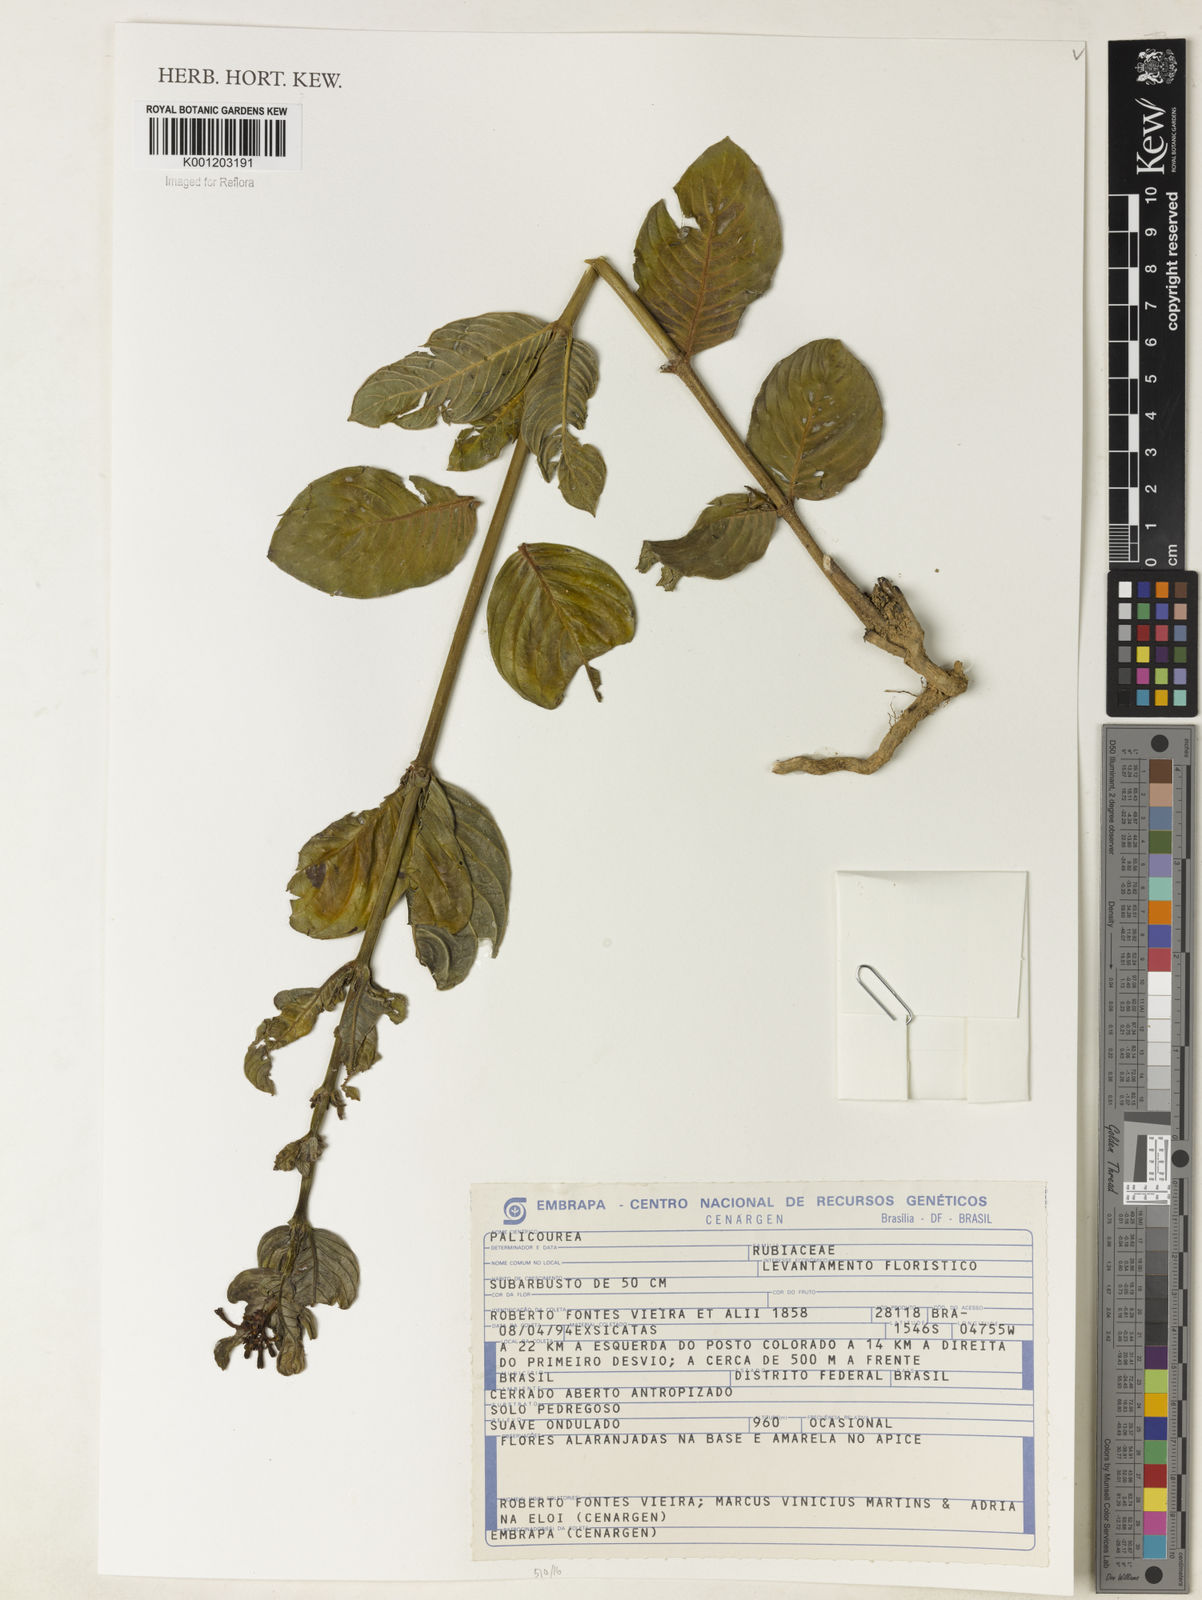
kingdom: Plantae
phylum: Tracheophyta
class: Magnoliopsida
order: Gentianales
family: Rubiaceae
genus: Palicourea
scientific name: Palicourea
